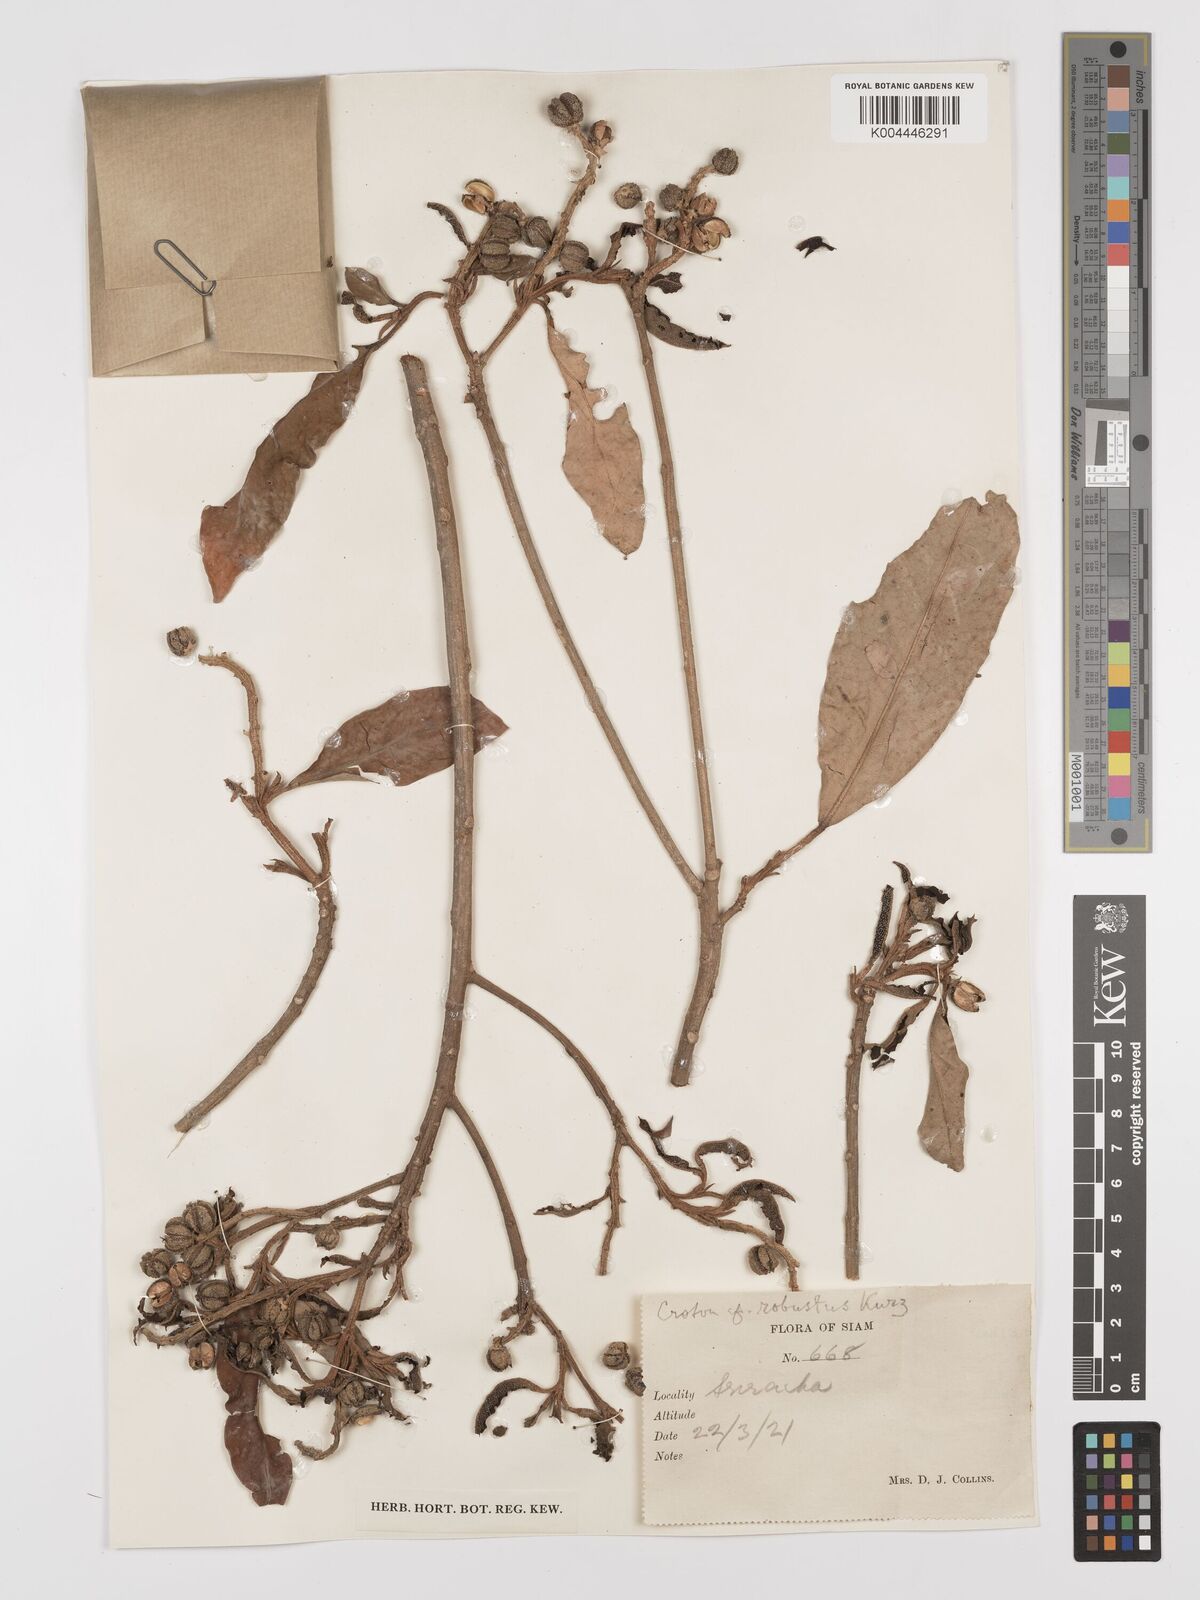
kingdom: Plantae
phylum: Tracheophyta
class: Magnoliopsida
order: Malpighiales
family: Euphorbiaceae
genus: Croton
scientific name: Croton robustus
